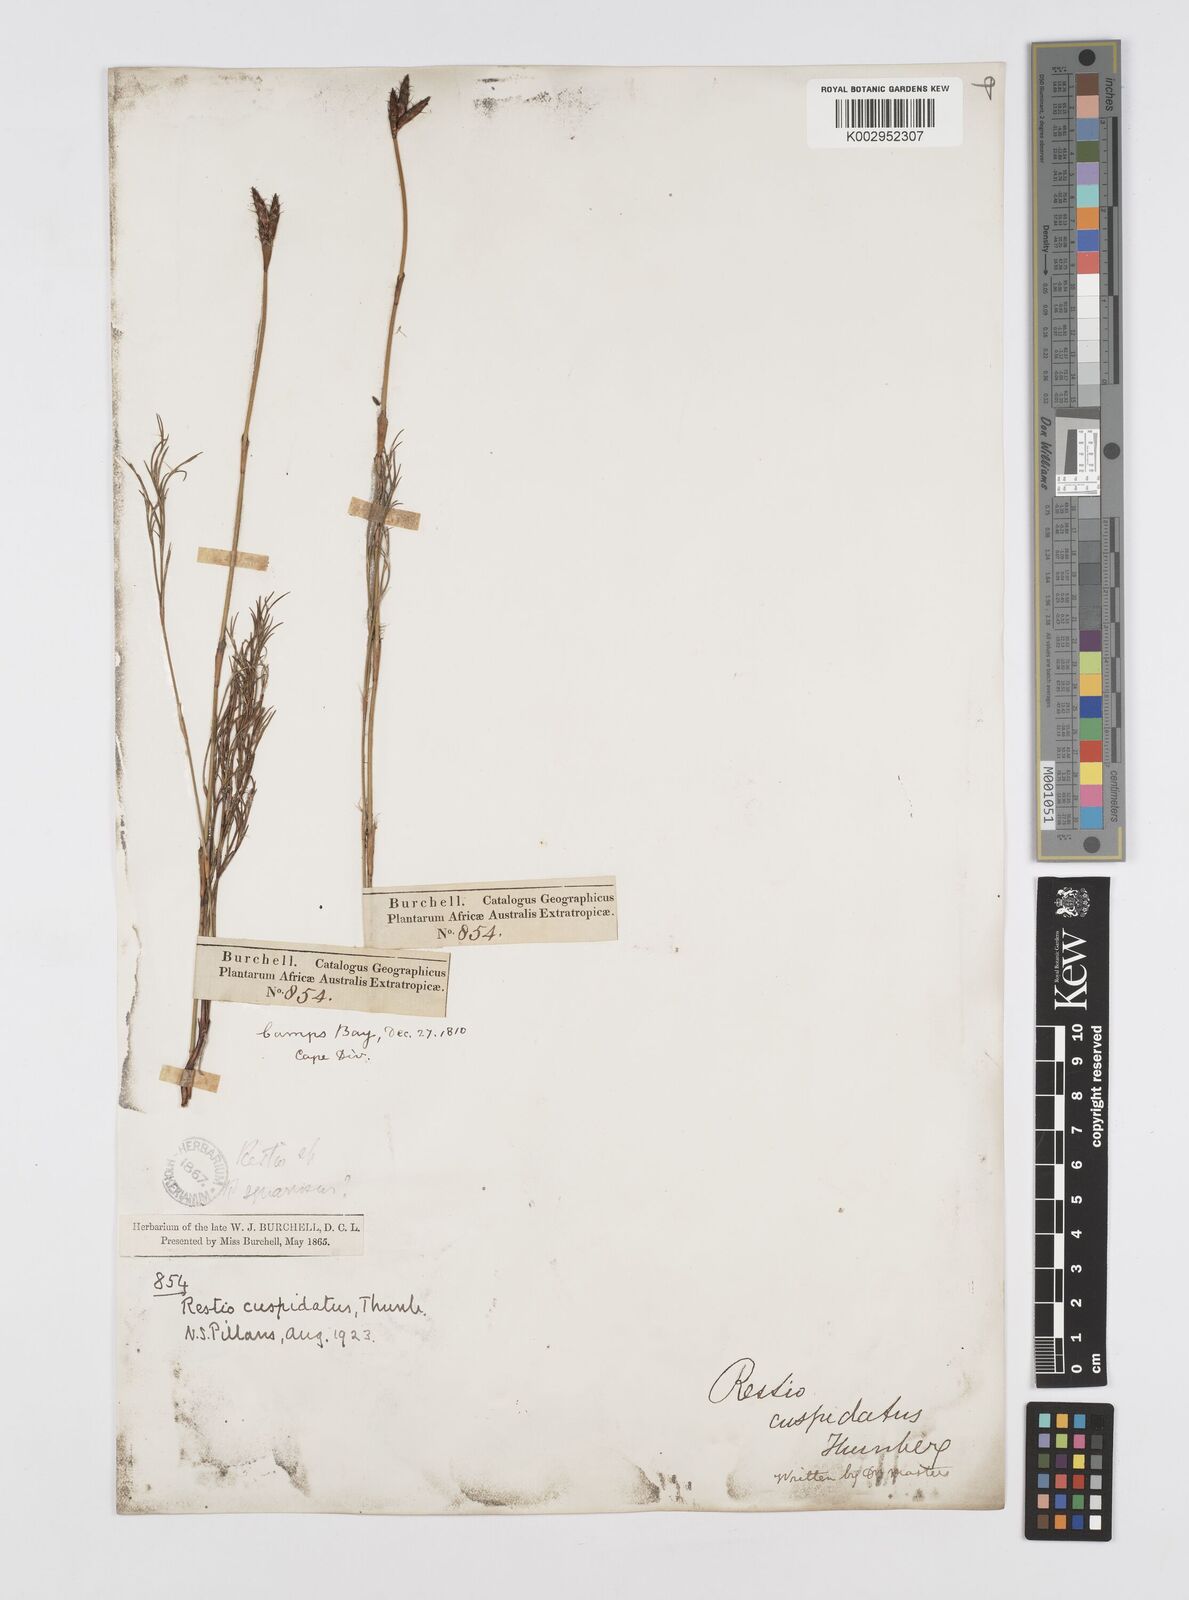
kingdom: Plantae
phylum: Tracheophyta
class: Liliopsida
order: Poales
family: Restionaceae
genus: Restio
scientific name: Restio capensis
